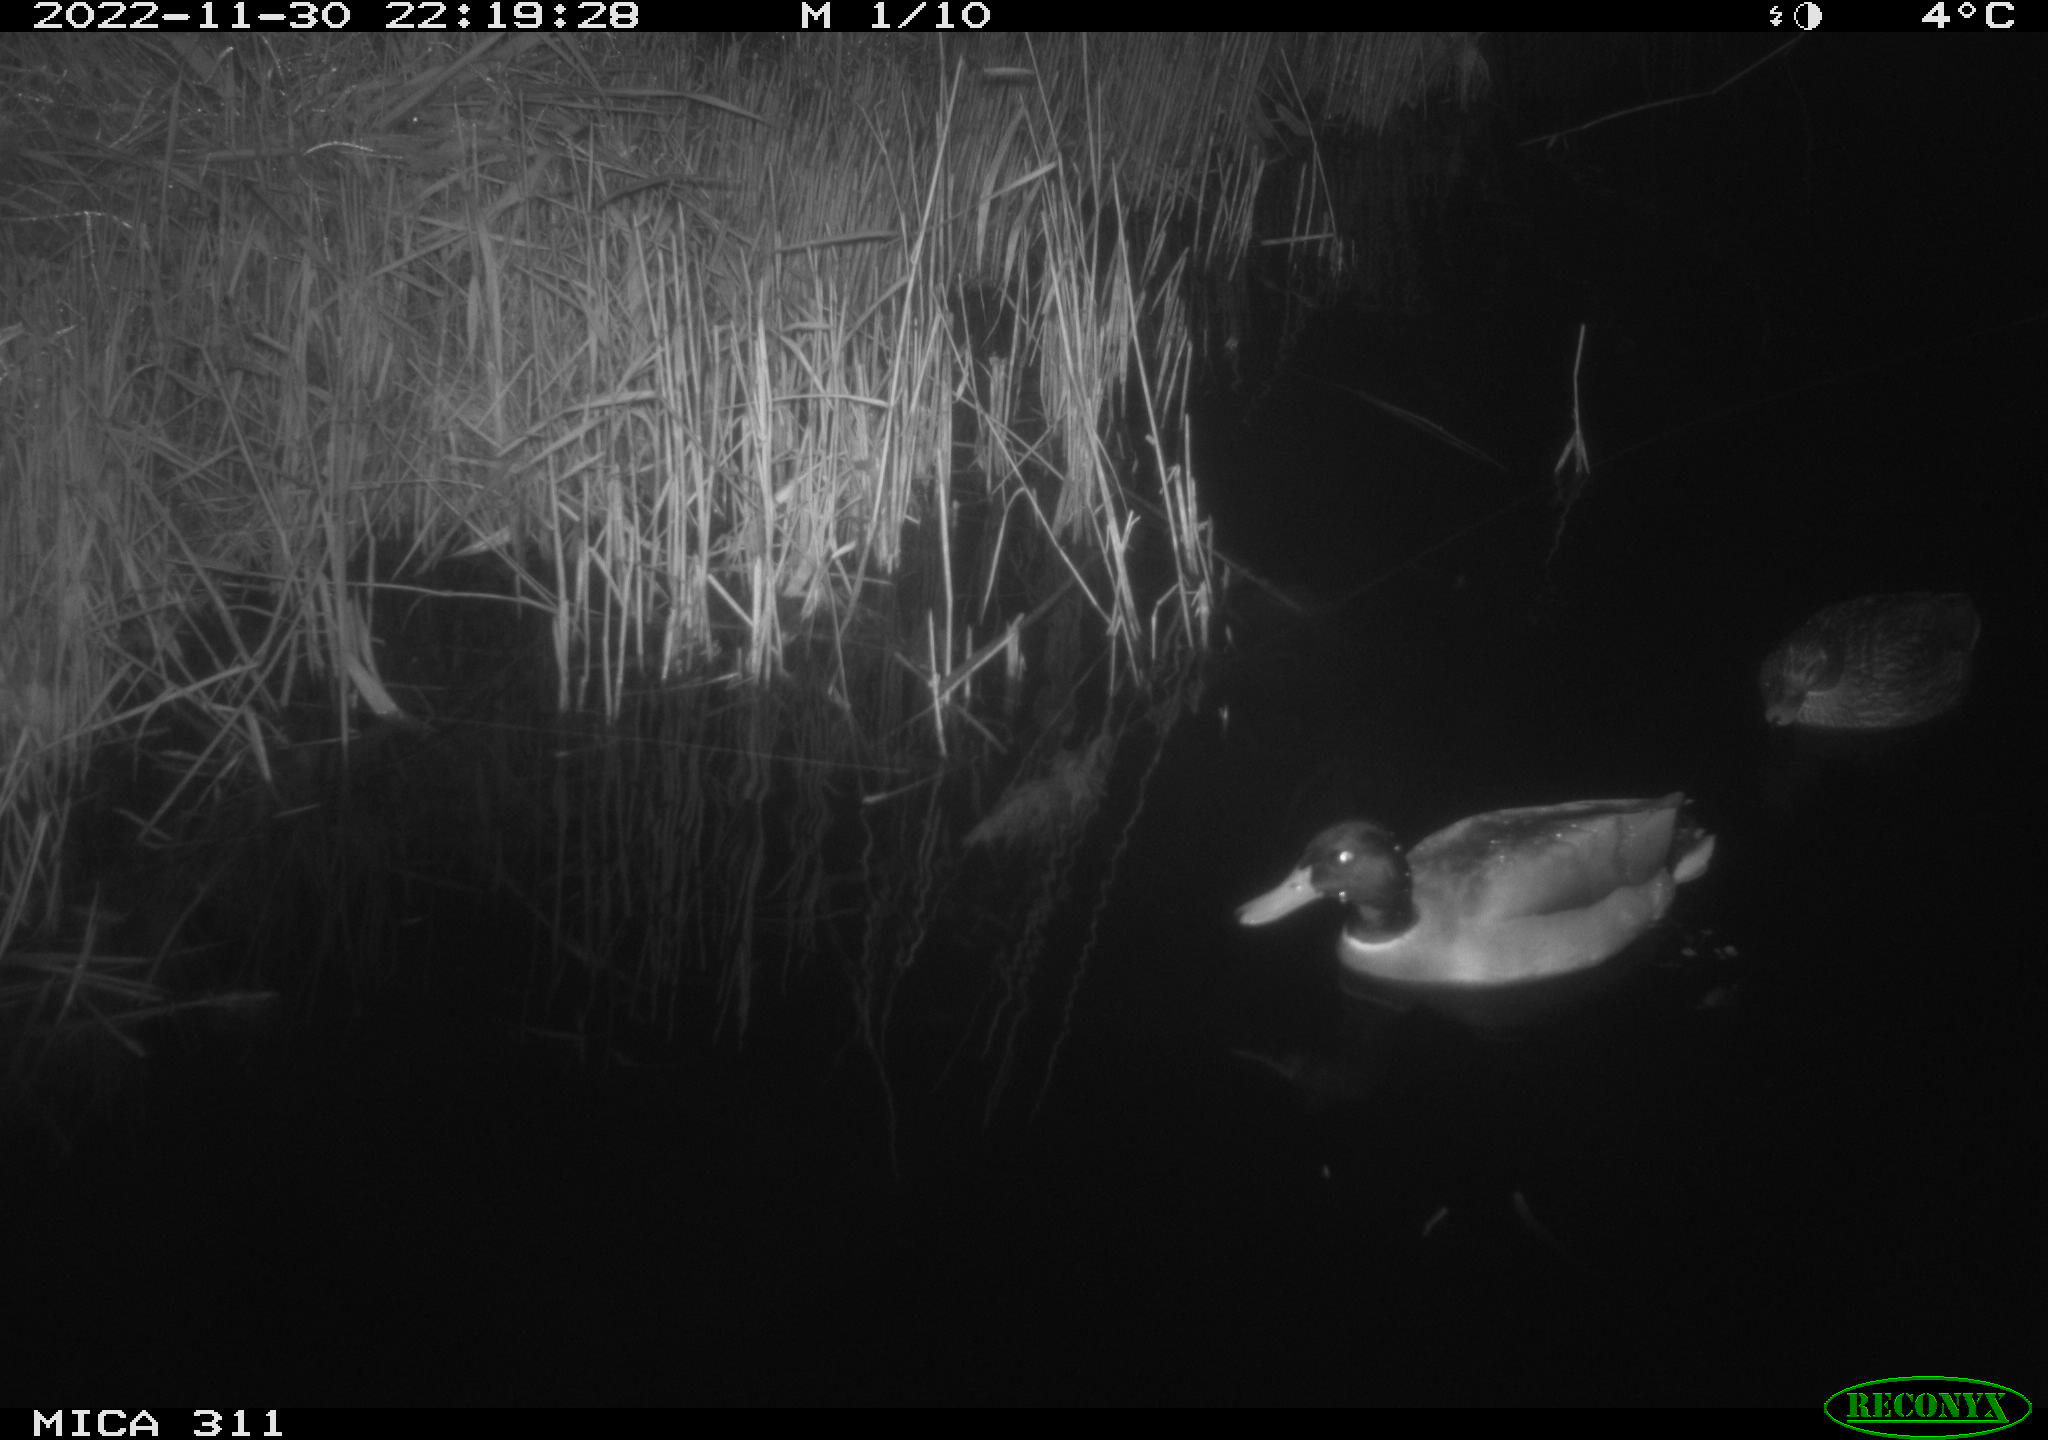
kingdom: Animalia
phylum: Chordata
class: Aves
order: Anseriformes
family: Anatidae
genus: Anas
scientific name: Anas
